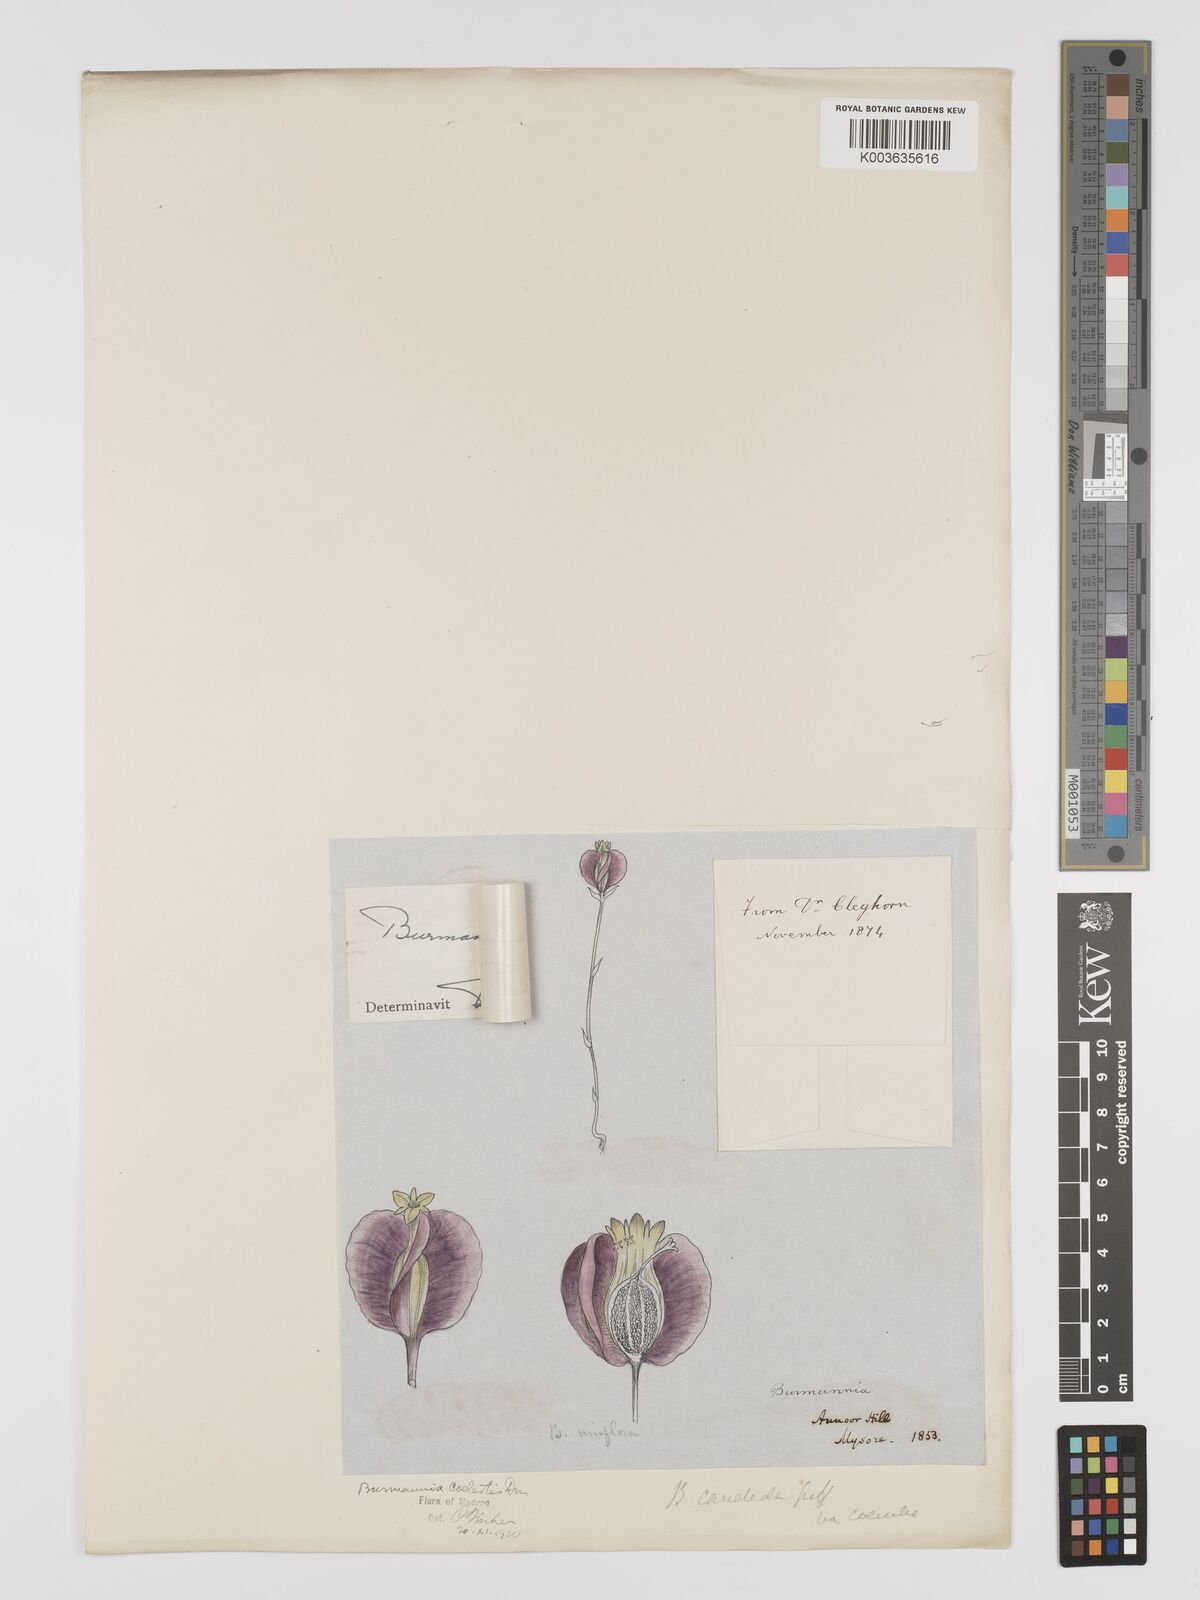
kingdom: Plantae
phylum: Tracheophyta
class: Liliopsida
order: Dioscoreales
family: Burmanniaceae
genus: Burmannia
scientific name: Burmannia candelabrum
